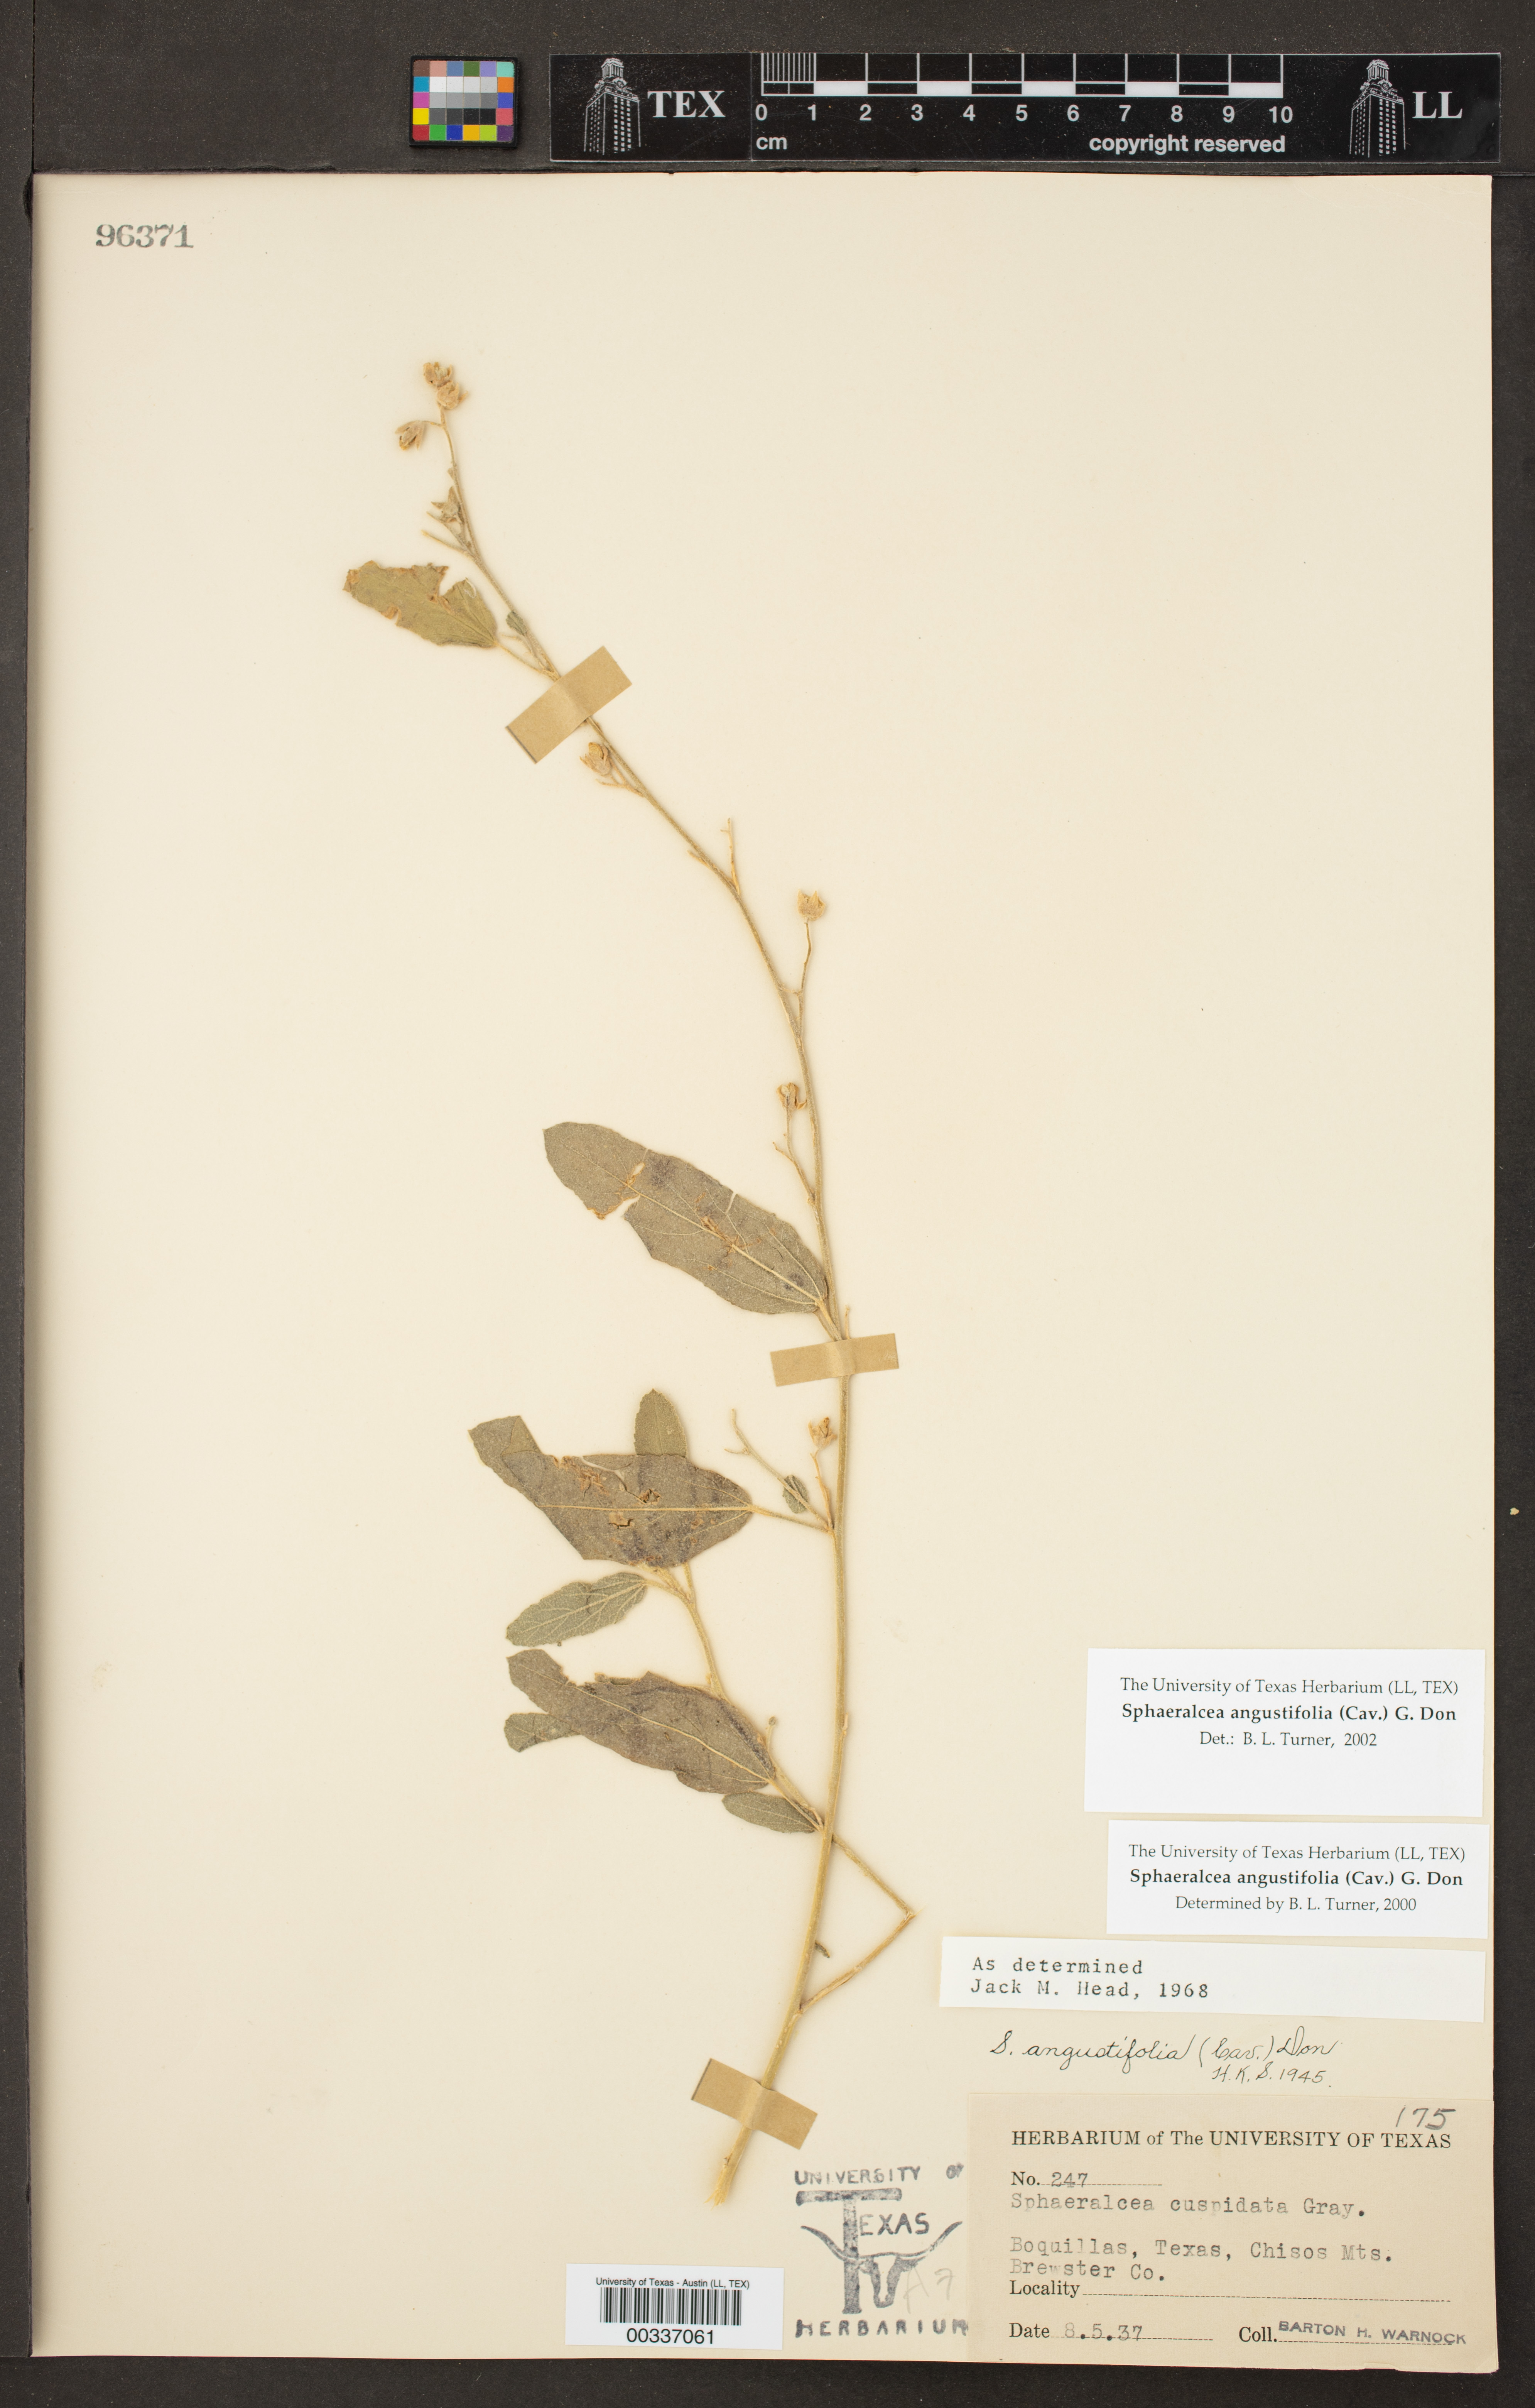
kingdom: Plantae
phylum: Tracheophyta
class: Magnoliopsida
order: Malvales
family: Malvaceae
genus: Sphaeralcea
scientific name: Sphaeralcea angustifolia
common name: Copper globe-mallow
